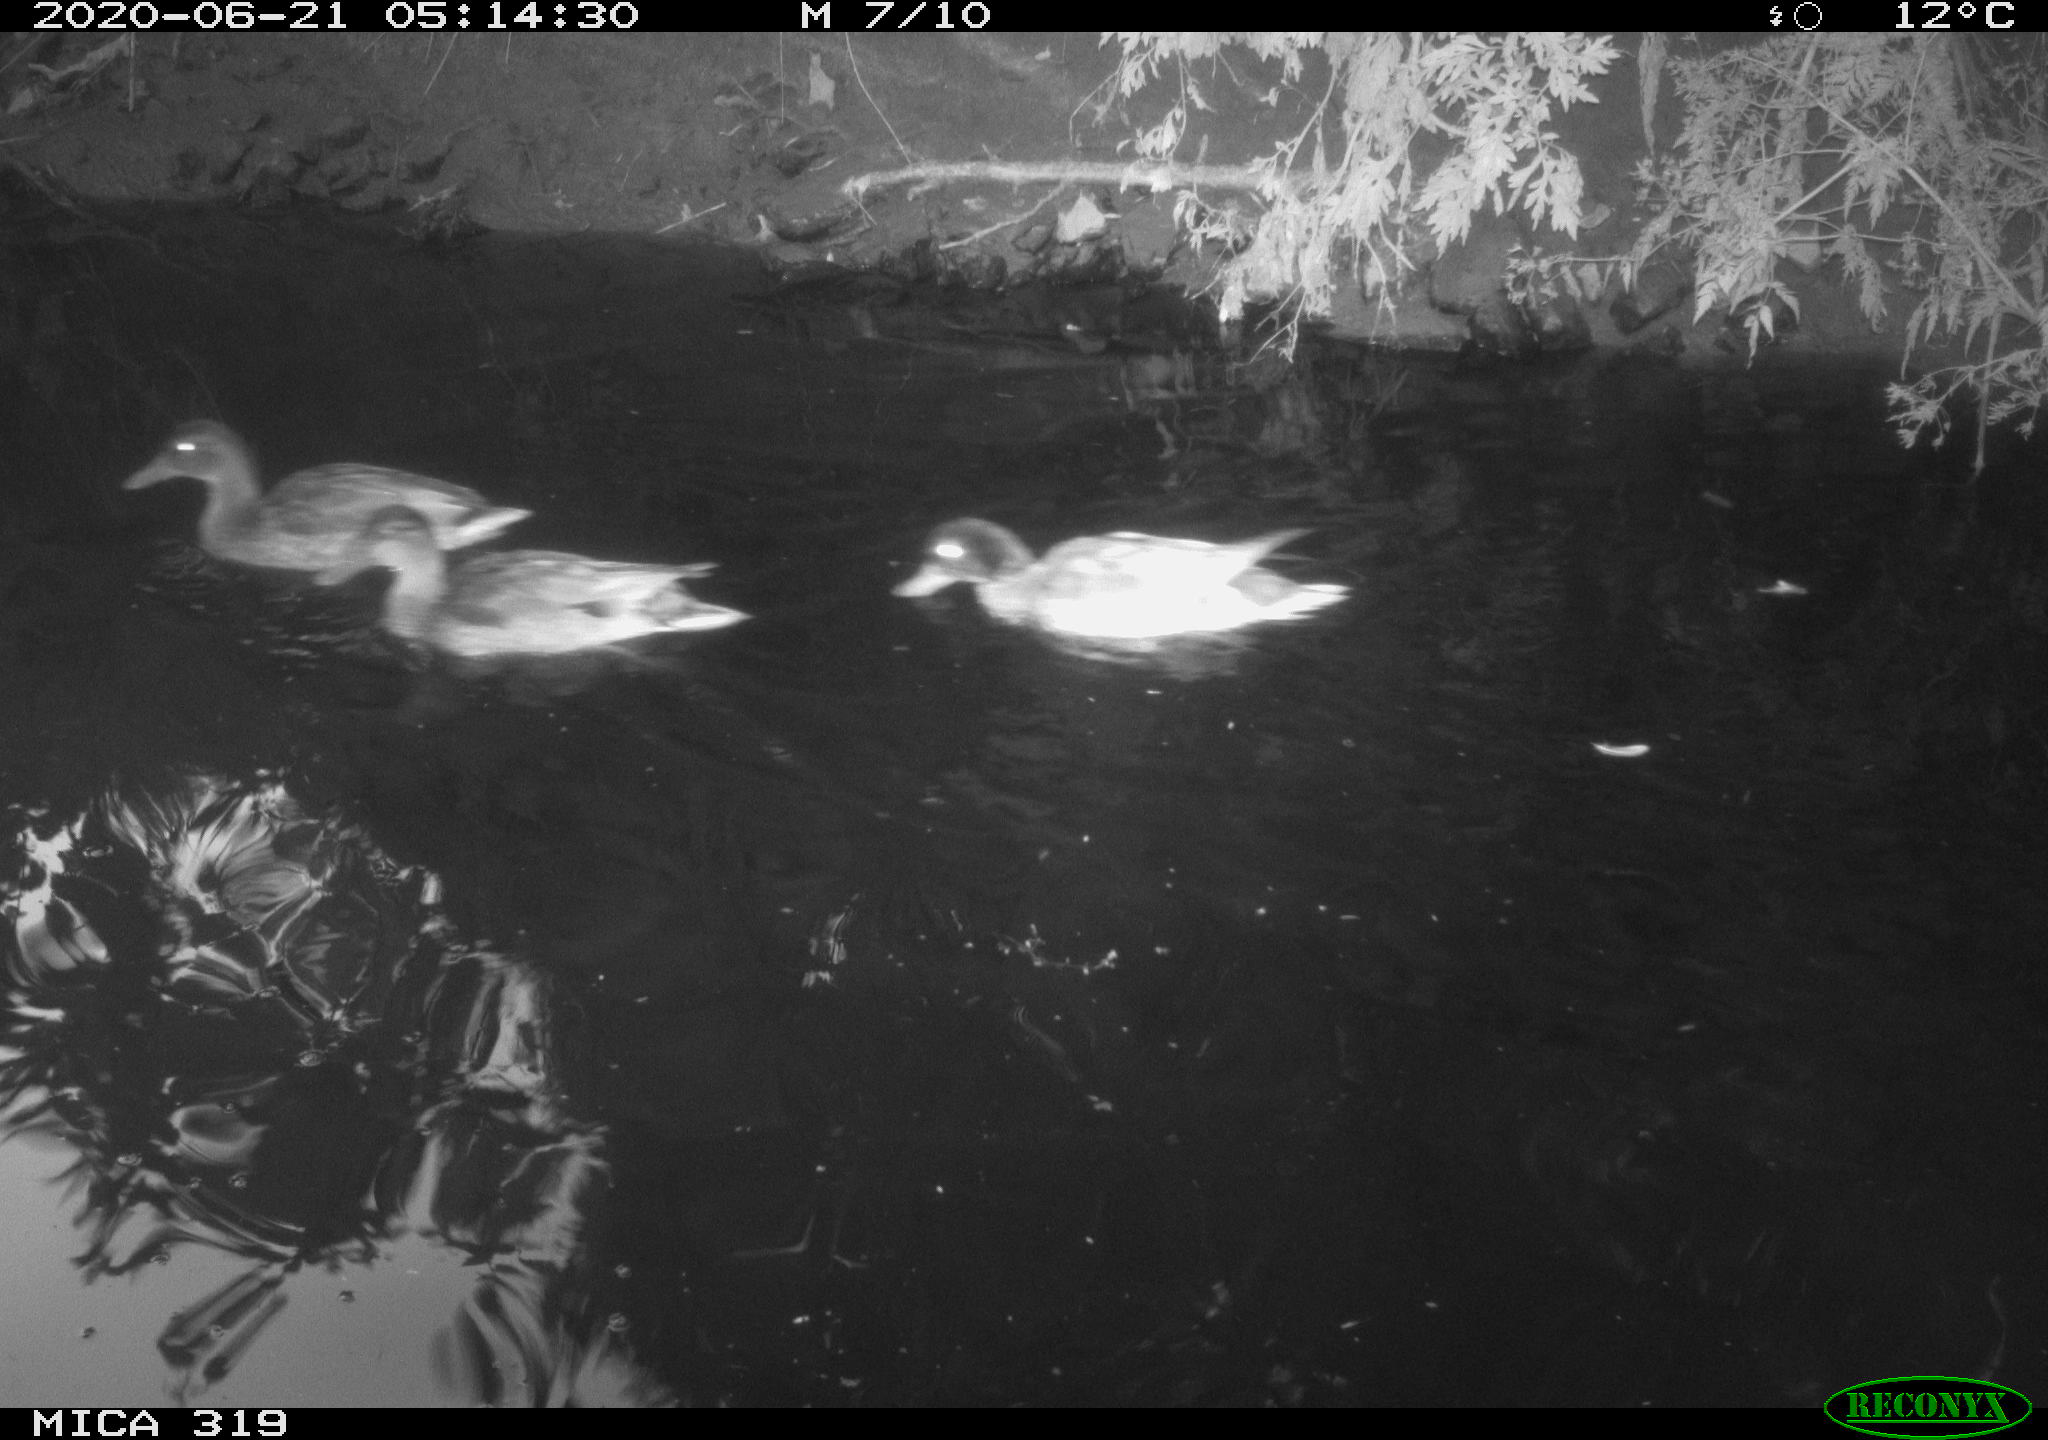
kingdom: Animalia
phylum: Chordata
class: Aves
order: Anseriformes
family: Anatidae
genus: Anas
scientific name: Anas platyrhynchos
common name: Mallard
